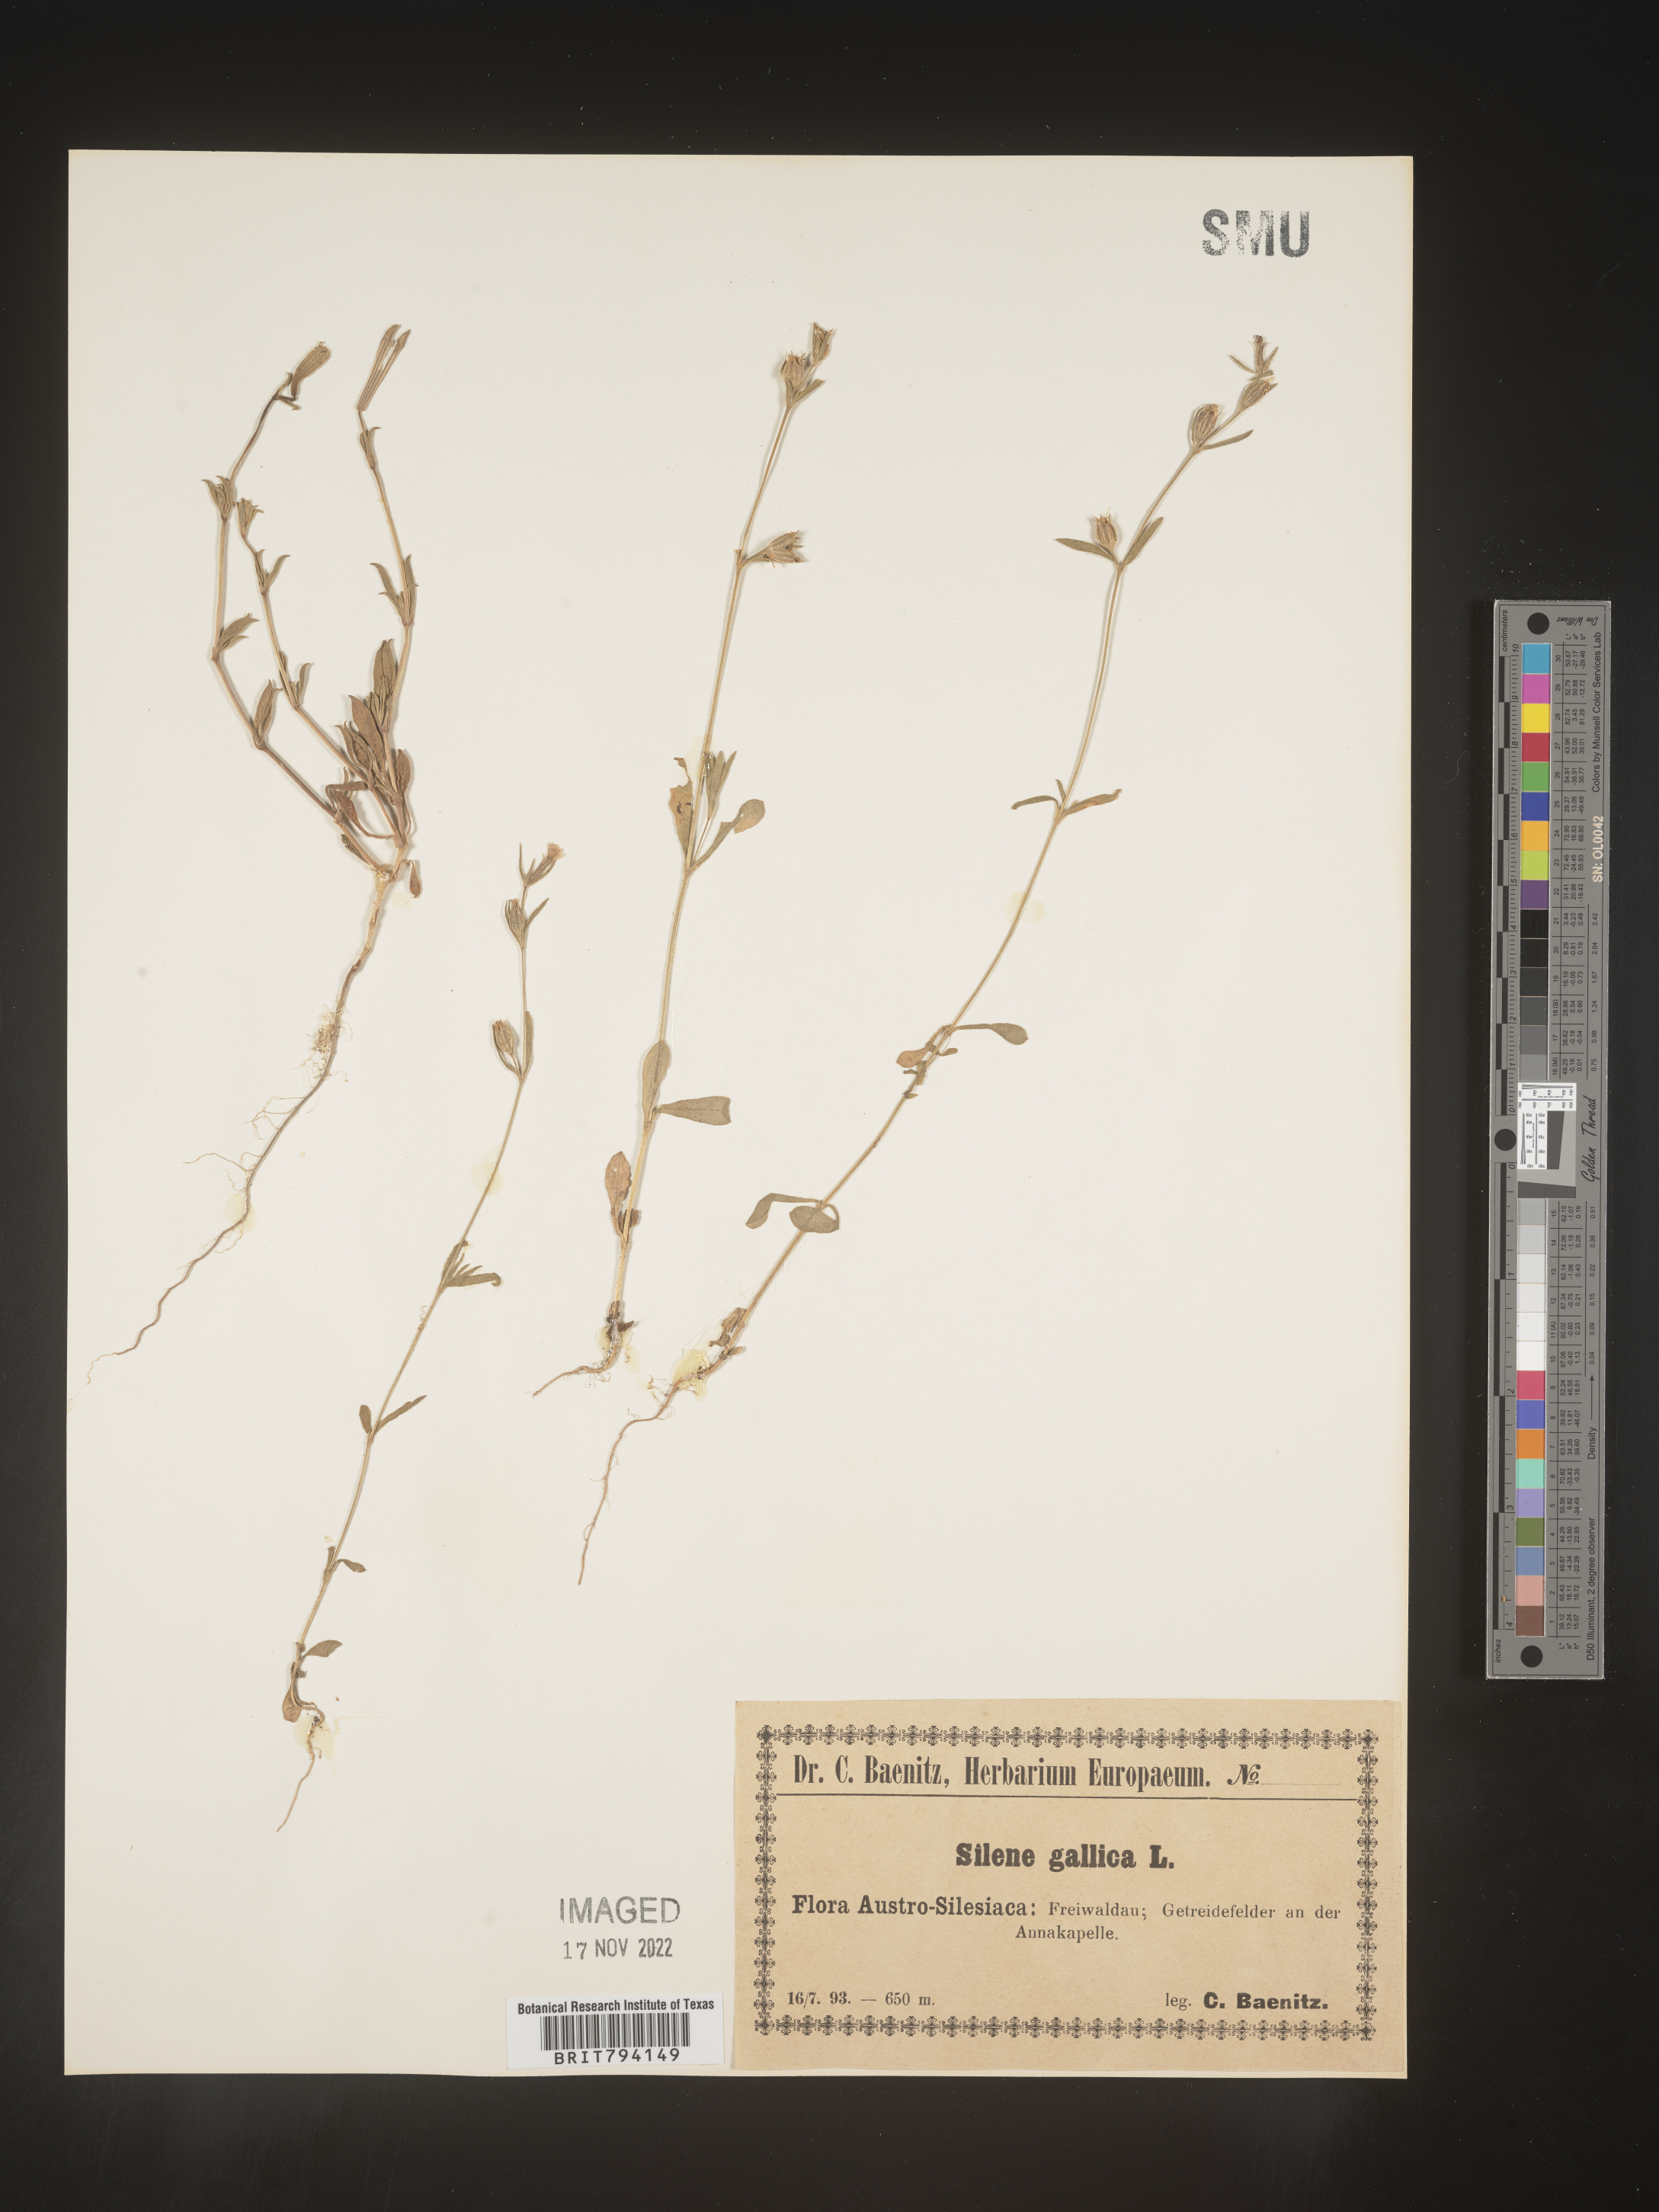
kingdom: Plantae
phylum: Tracheophyta
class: Magnoliopsida
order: Caryophyllales
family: Caryophyllaceae
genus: Silene
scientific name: Silene gallica
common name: Small-flowered catchfly
